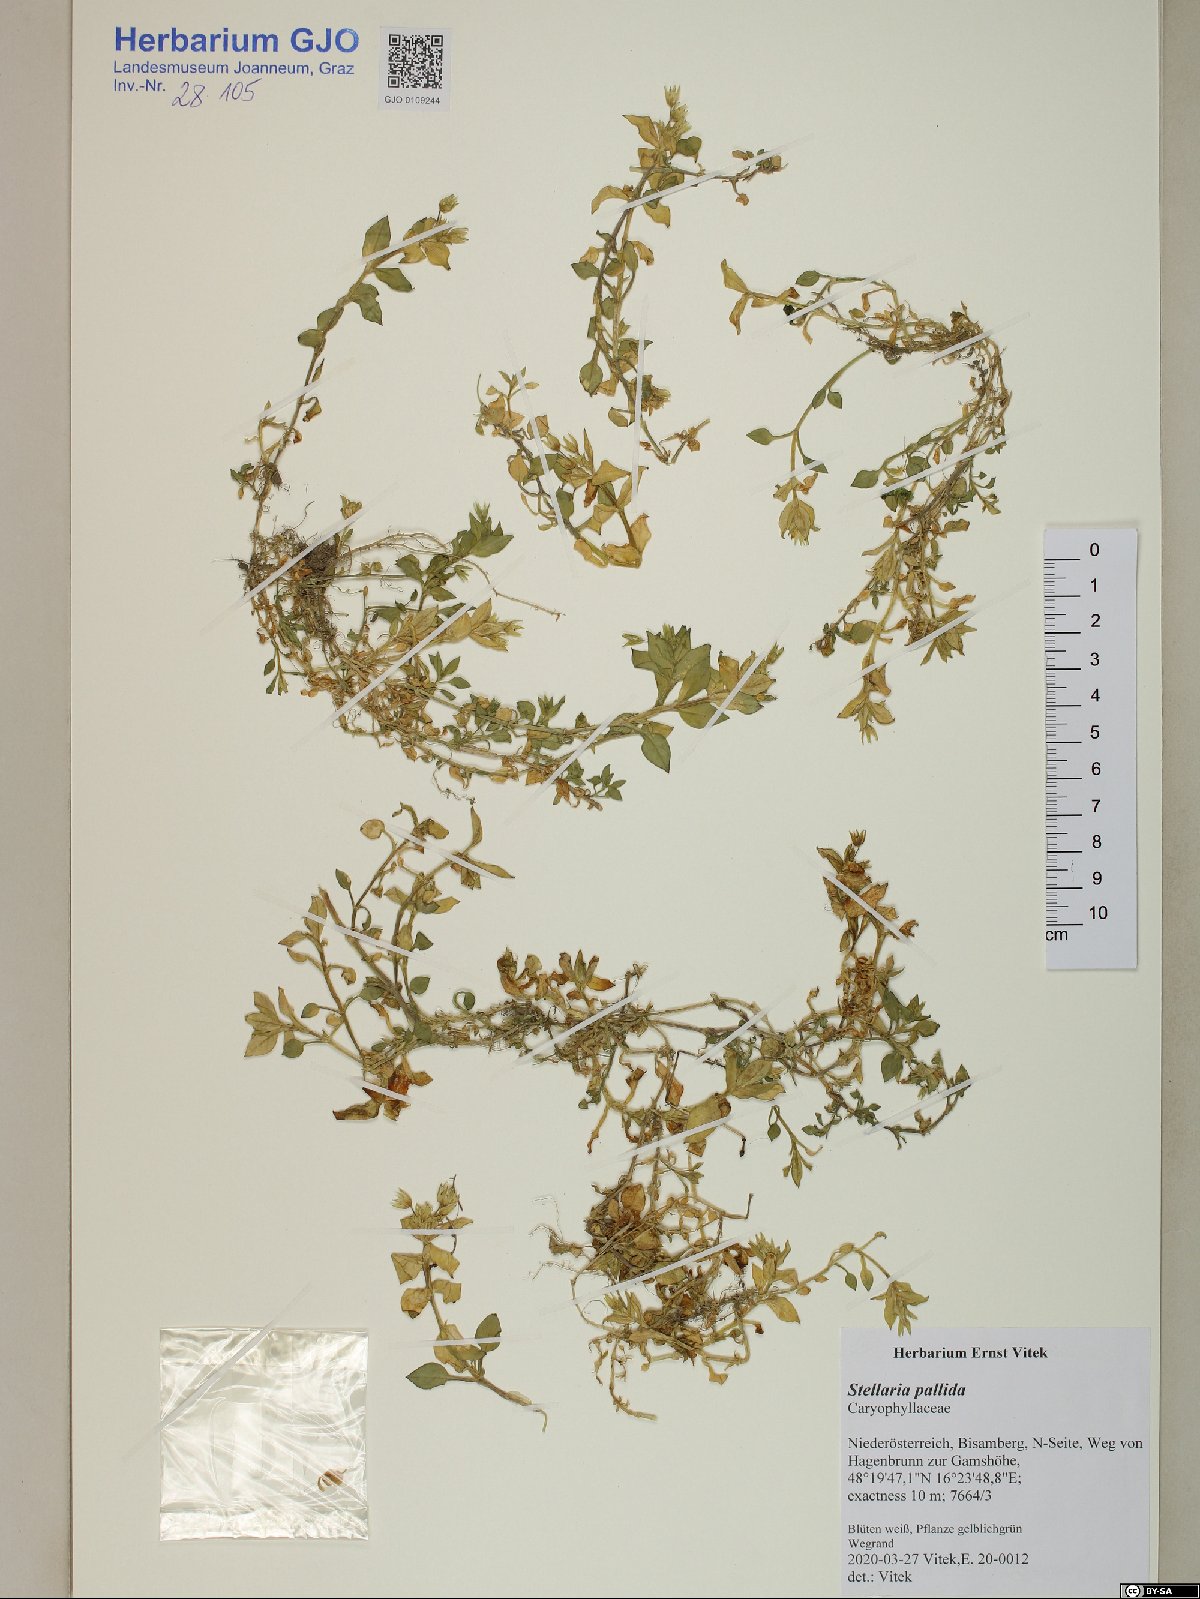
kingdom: Plantae
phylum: Tracheophyta
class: Magnoliopsida
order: Caryophyllales
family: Caryophyllaceae
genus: Stellaria
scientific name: Stellaria apetala
